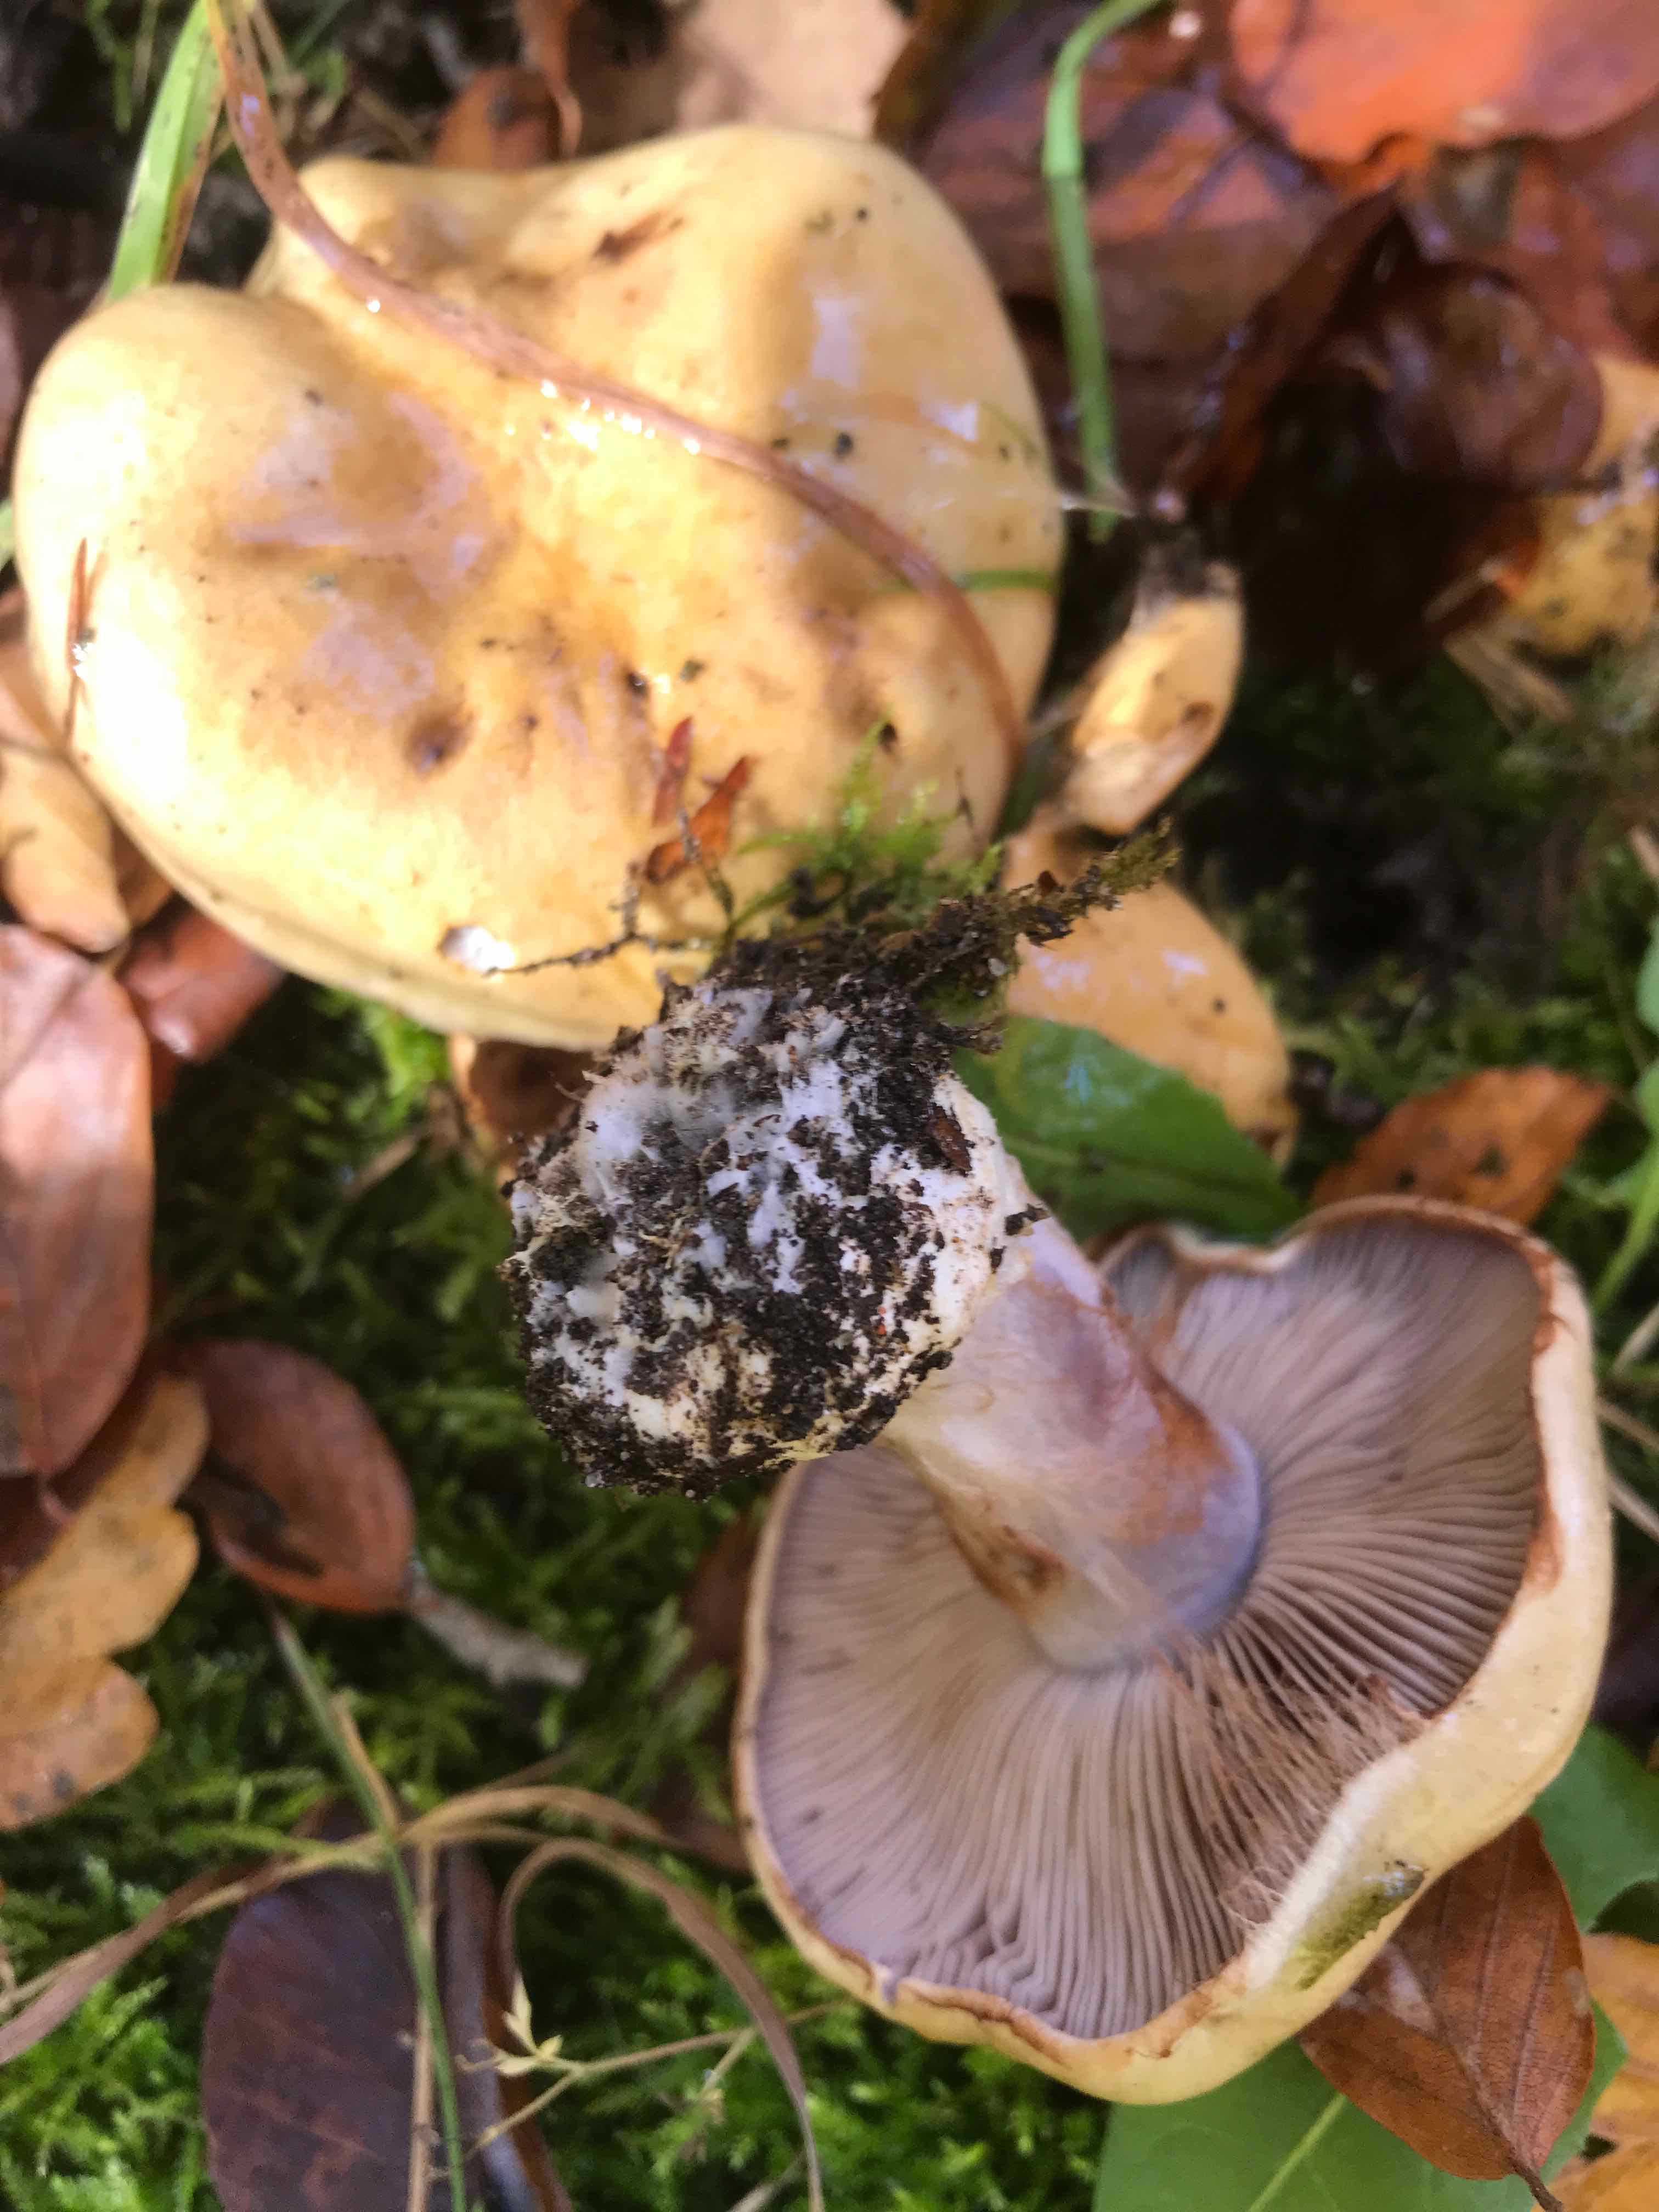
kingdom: Fungi
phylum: Basidiomycota
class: Agaricomycetes
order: Agaricales
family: Cortinariaceae
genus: Cortinarius
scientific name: Cortinarius anserinus
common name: bøge-slørhat
